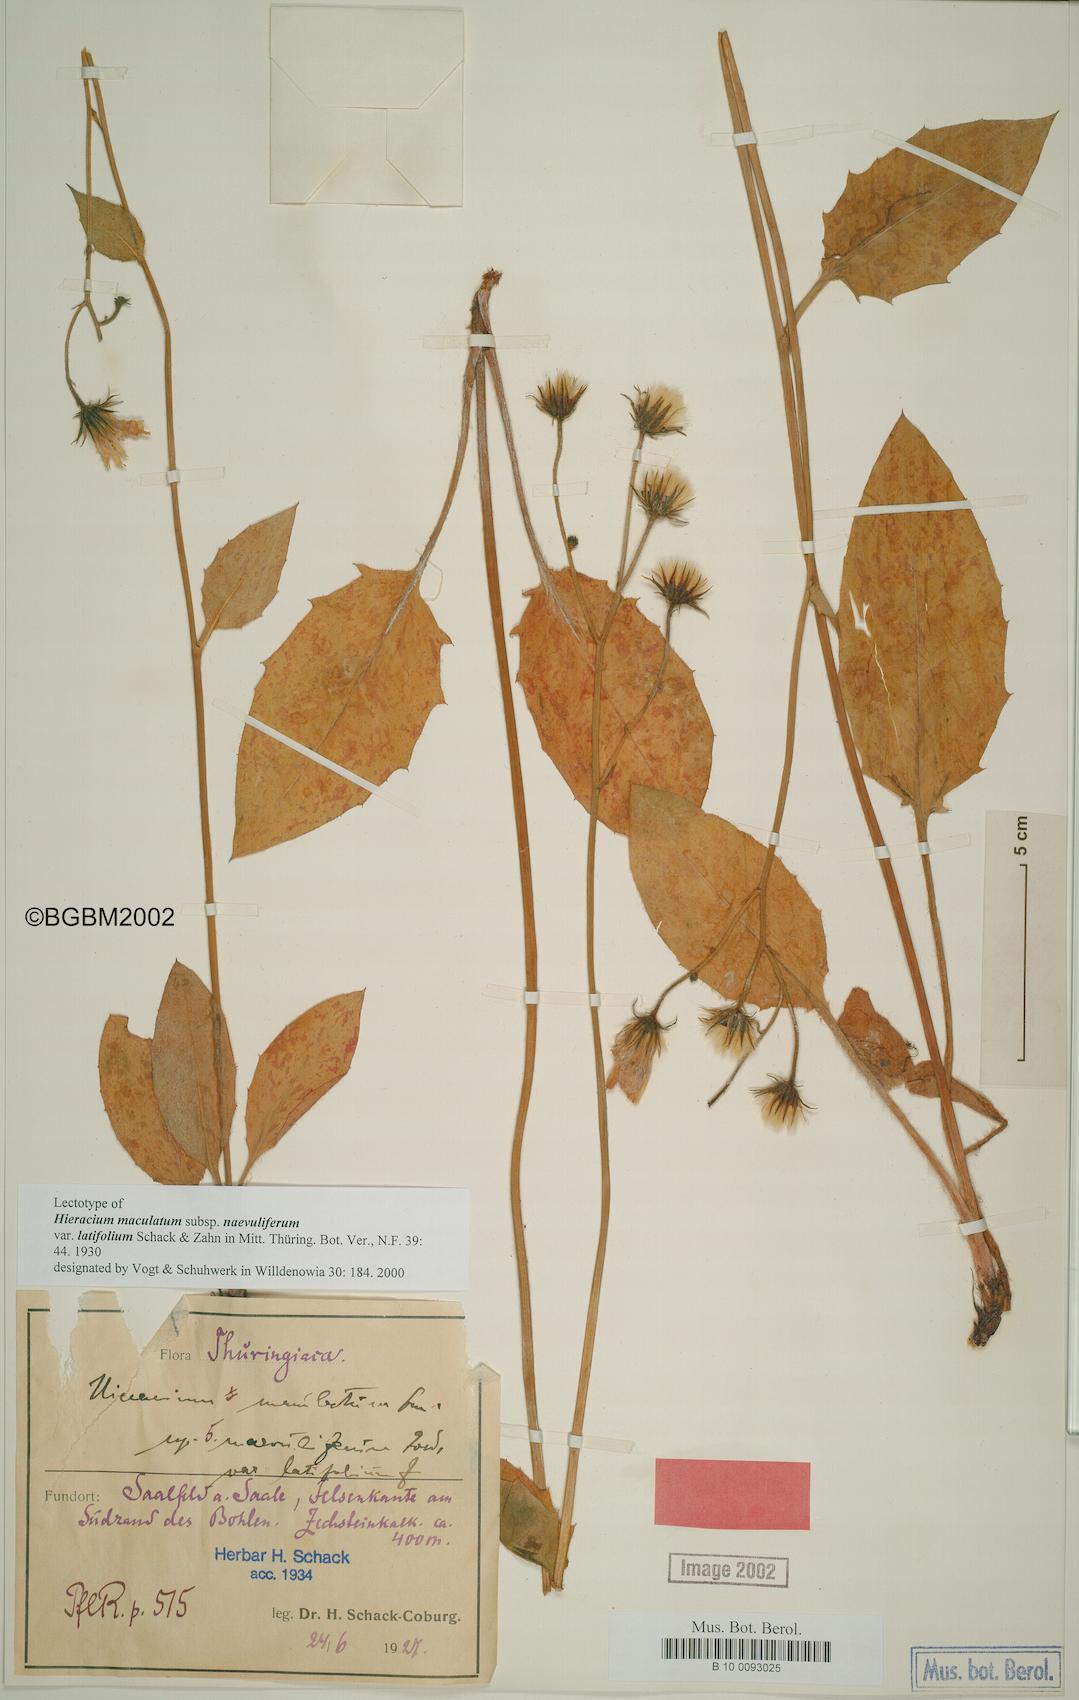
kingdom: Plantae
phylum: Tracheophyta
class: Magnoliopsida
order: Asterales
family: Asteraceae
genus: Hieracium
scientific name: Hieracium maculatum
